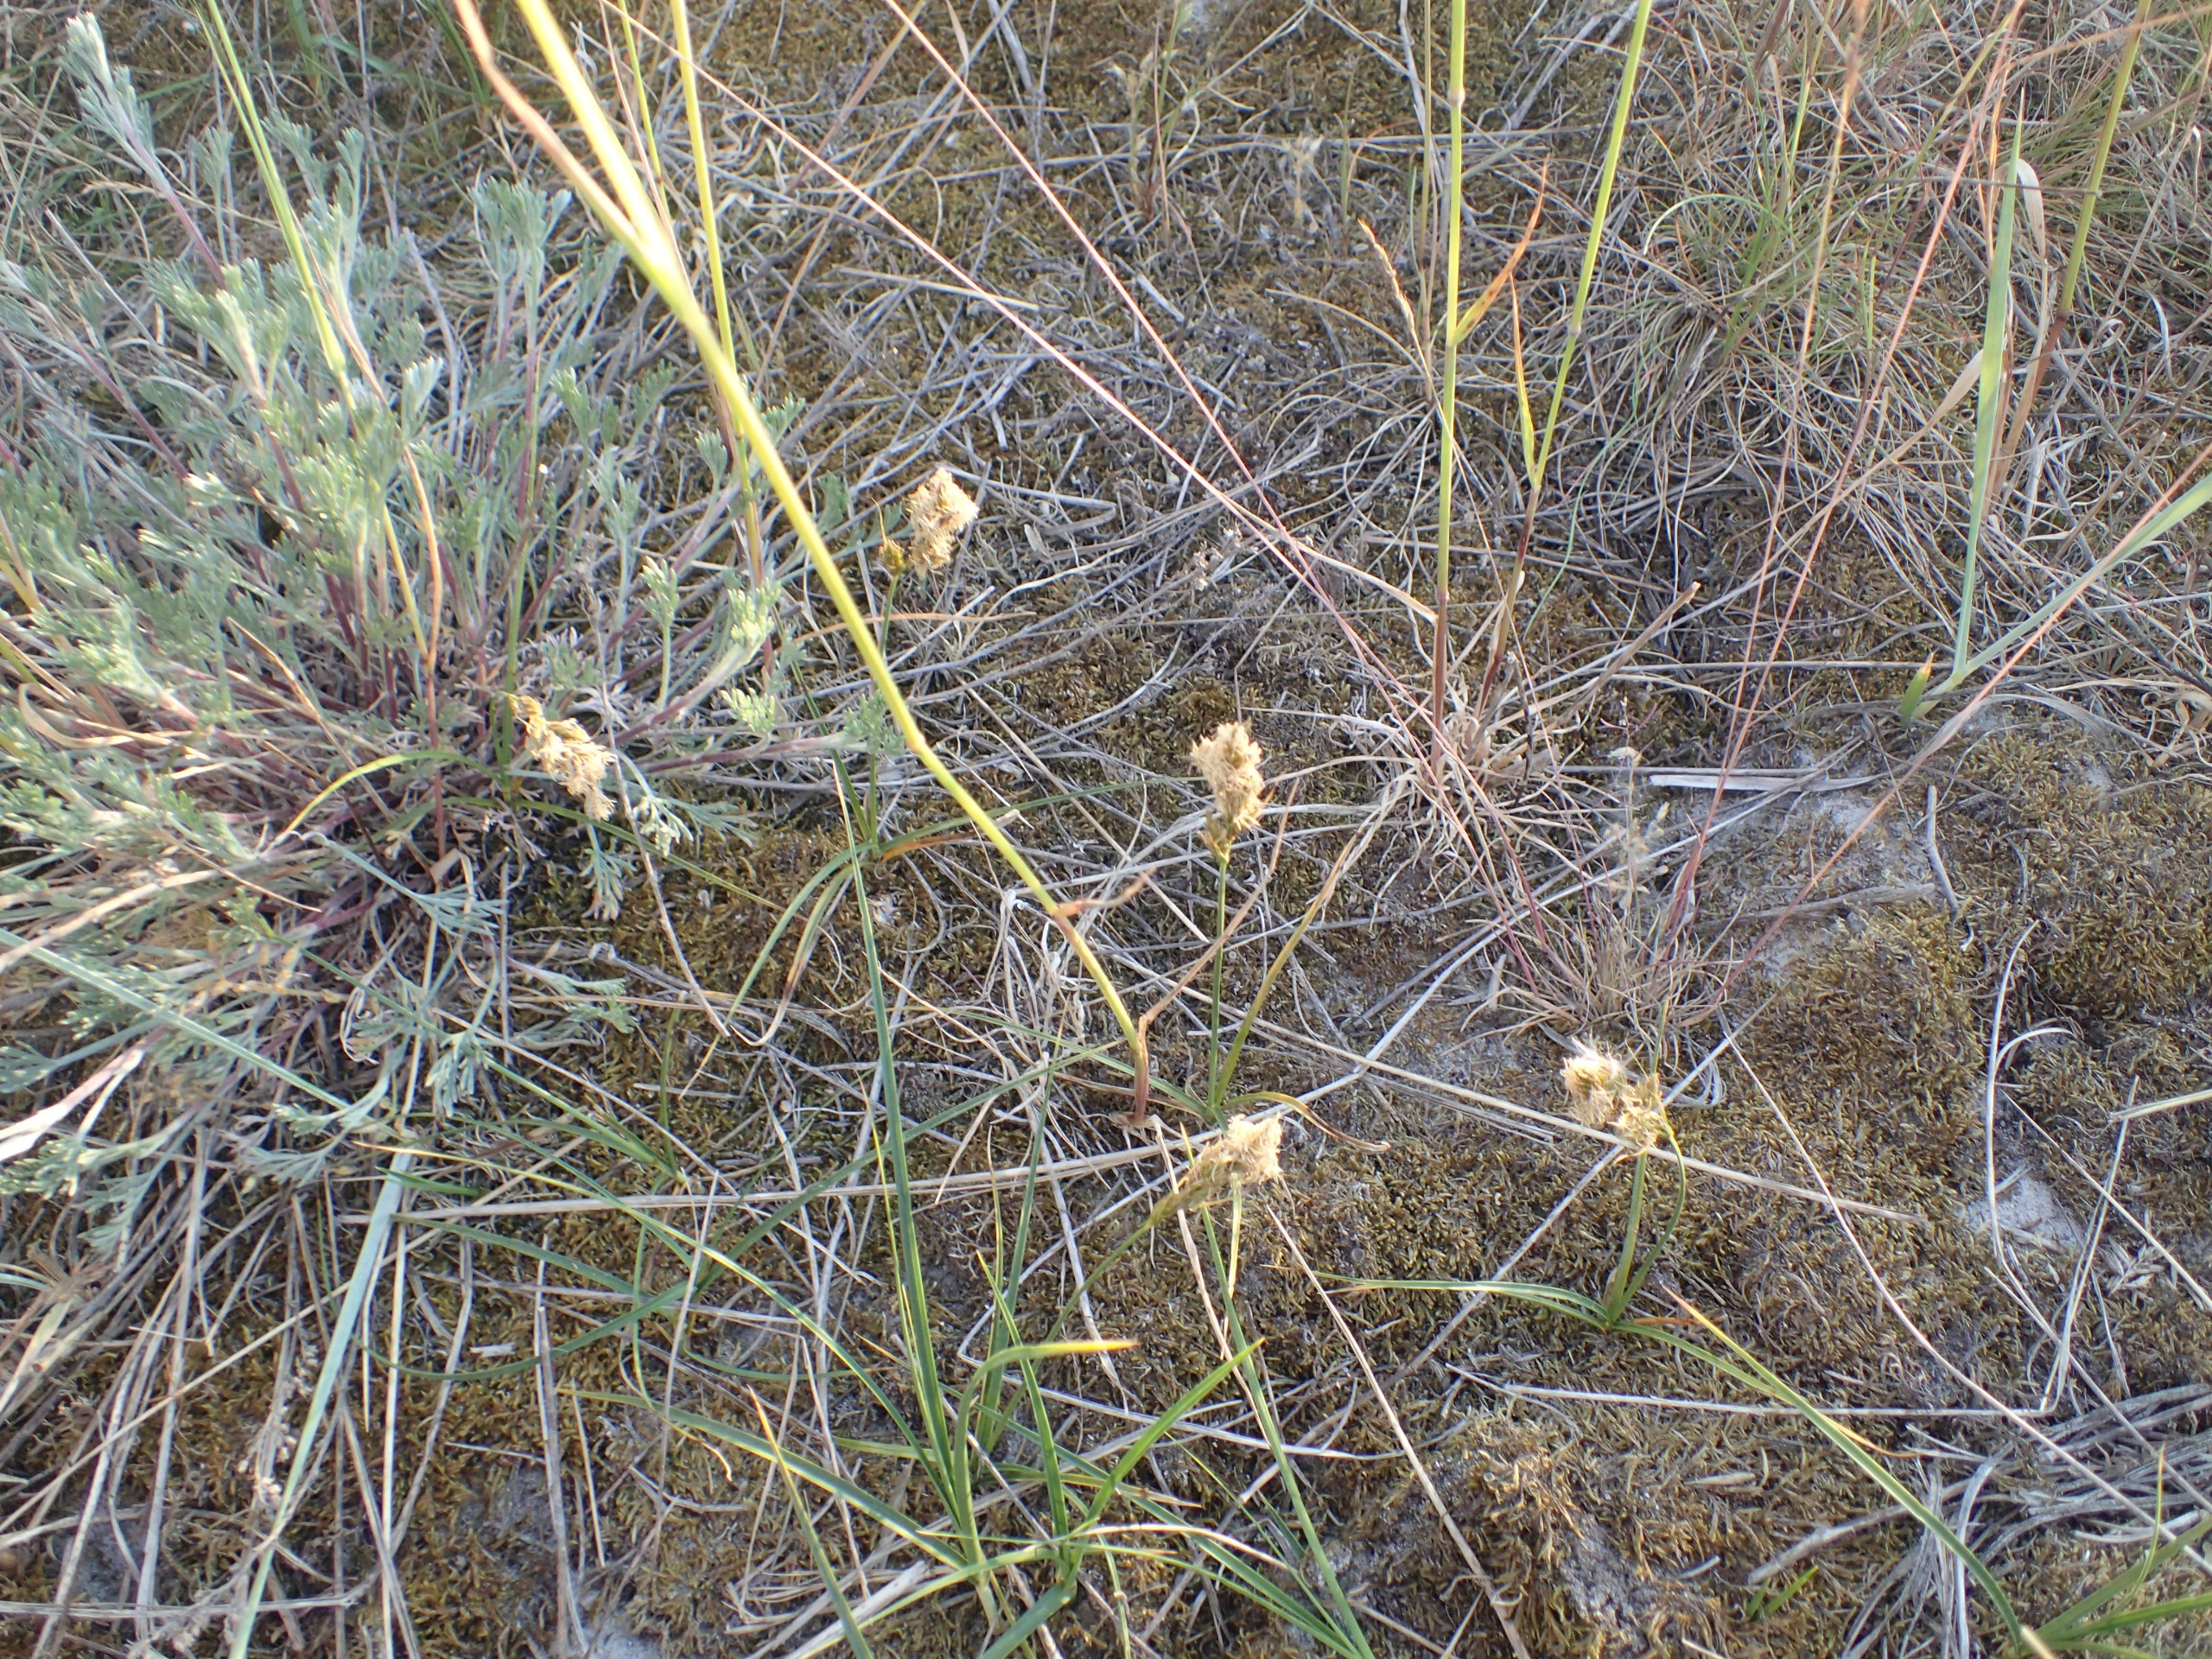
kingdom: Plantae
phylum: Tracheophyta
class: Liliopsida
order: Poales
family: Cyperaceae
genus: Carex
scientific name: Carex arenaria
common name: Sand-star
